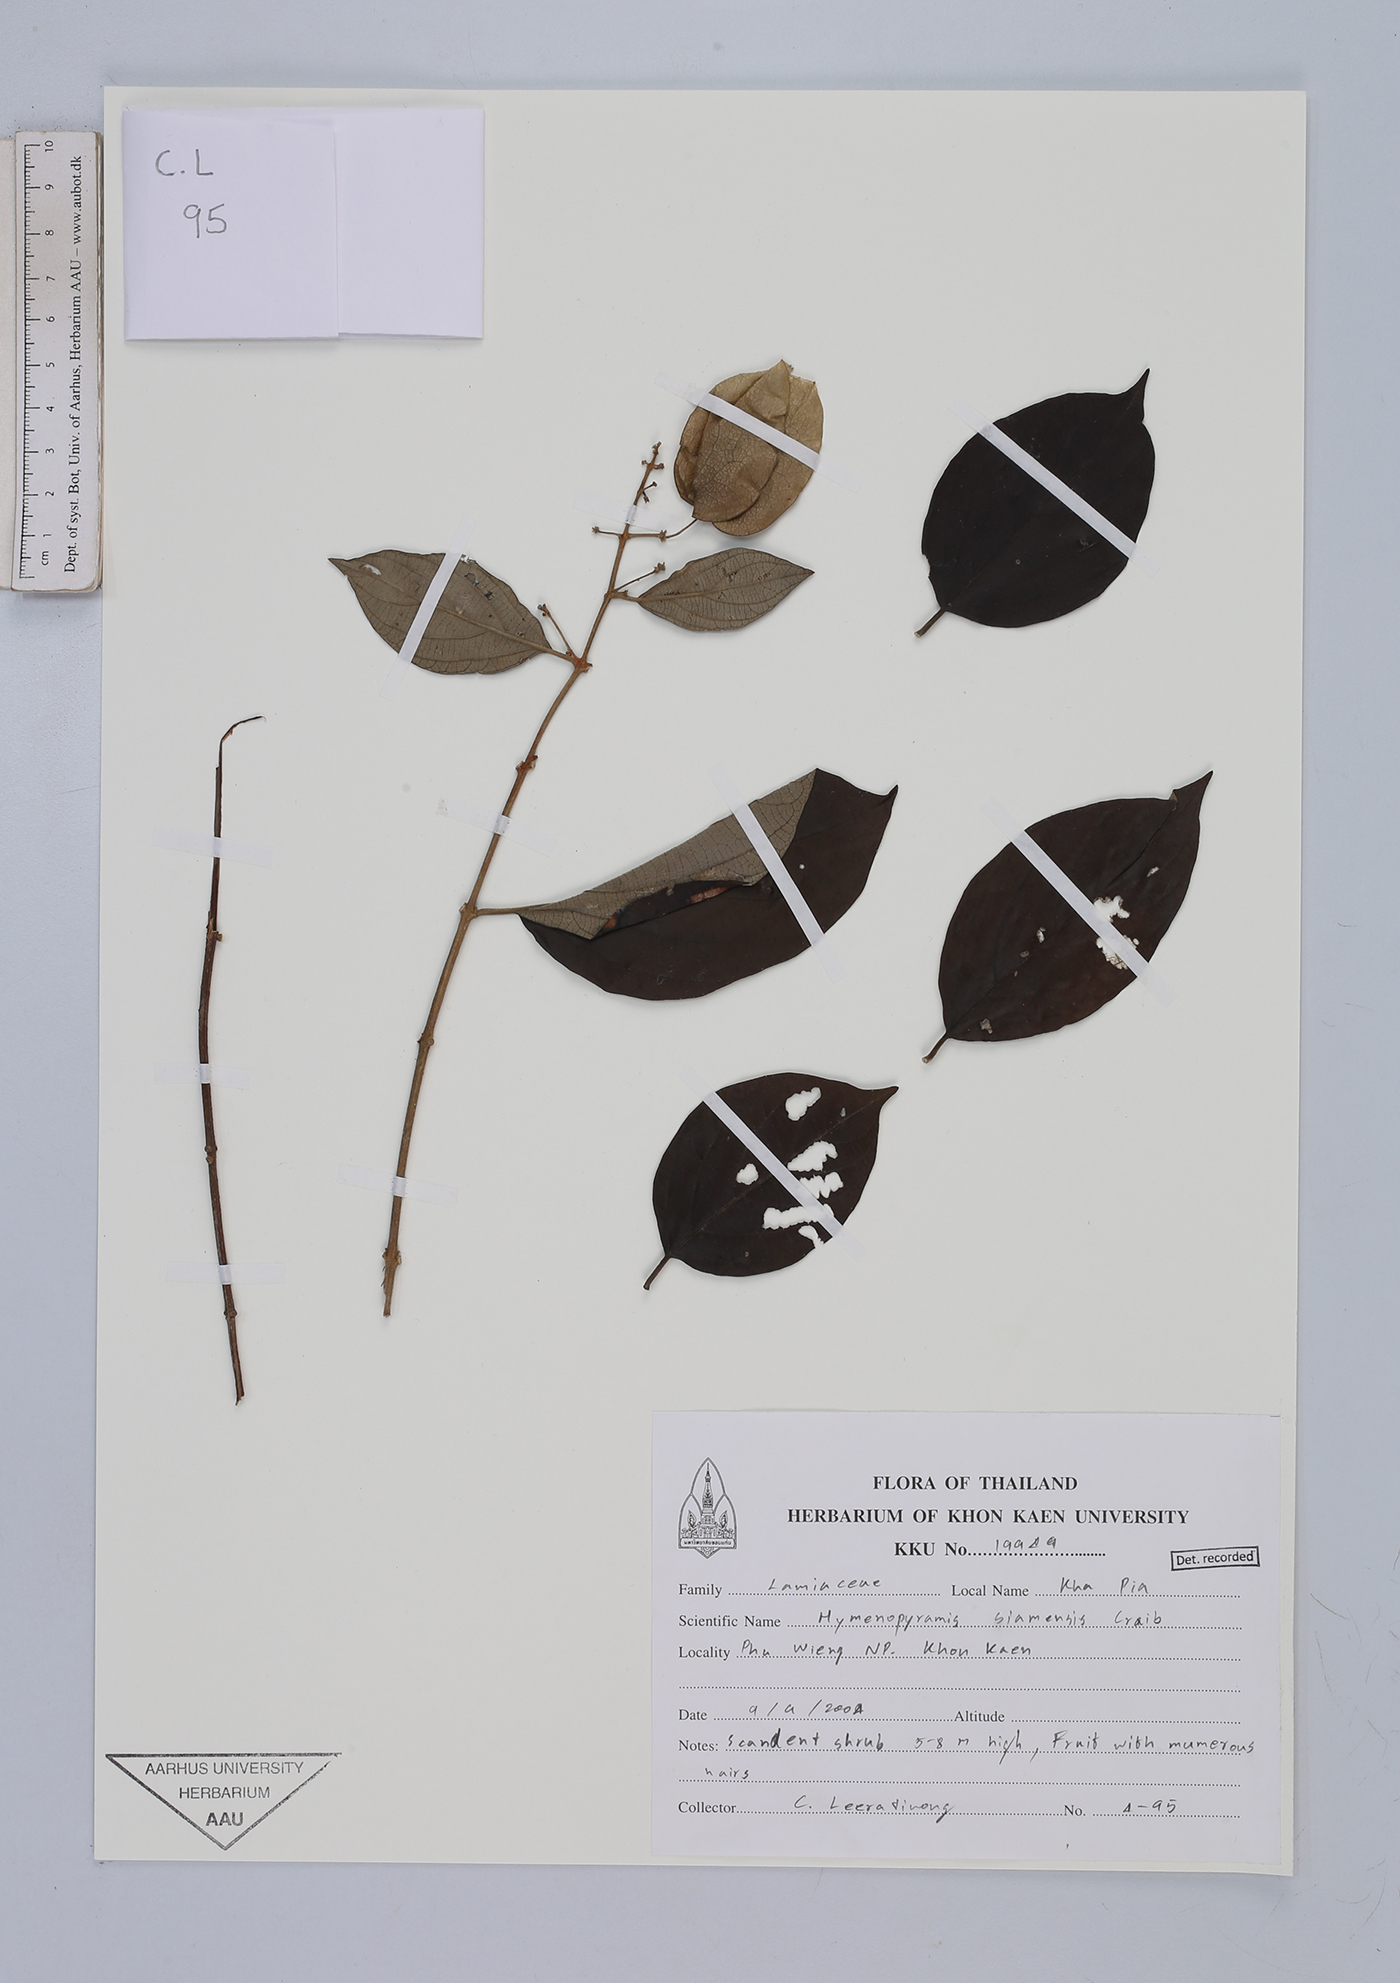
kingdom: Plantae
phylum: Tracheophyta
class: Magnoliopsida
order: Lamiales
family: Lamiaceae
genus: Hymenopyramis
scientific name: Hymenopyramis vesiculosa
